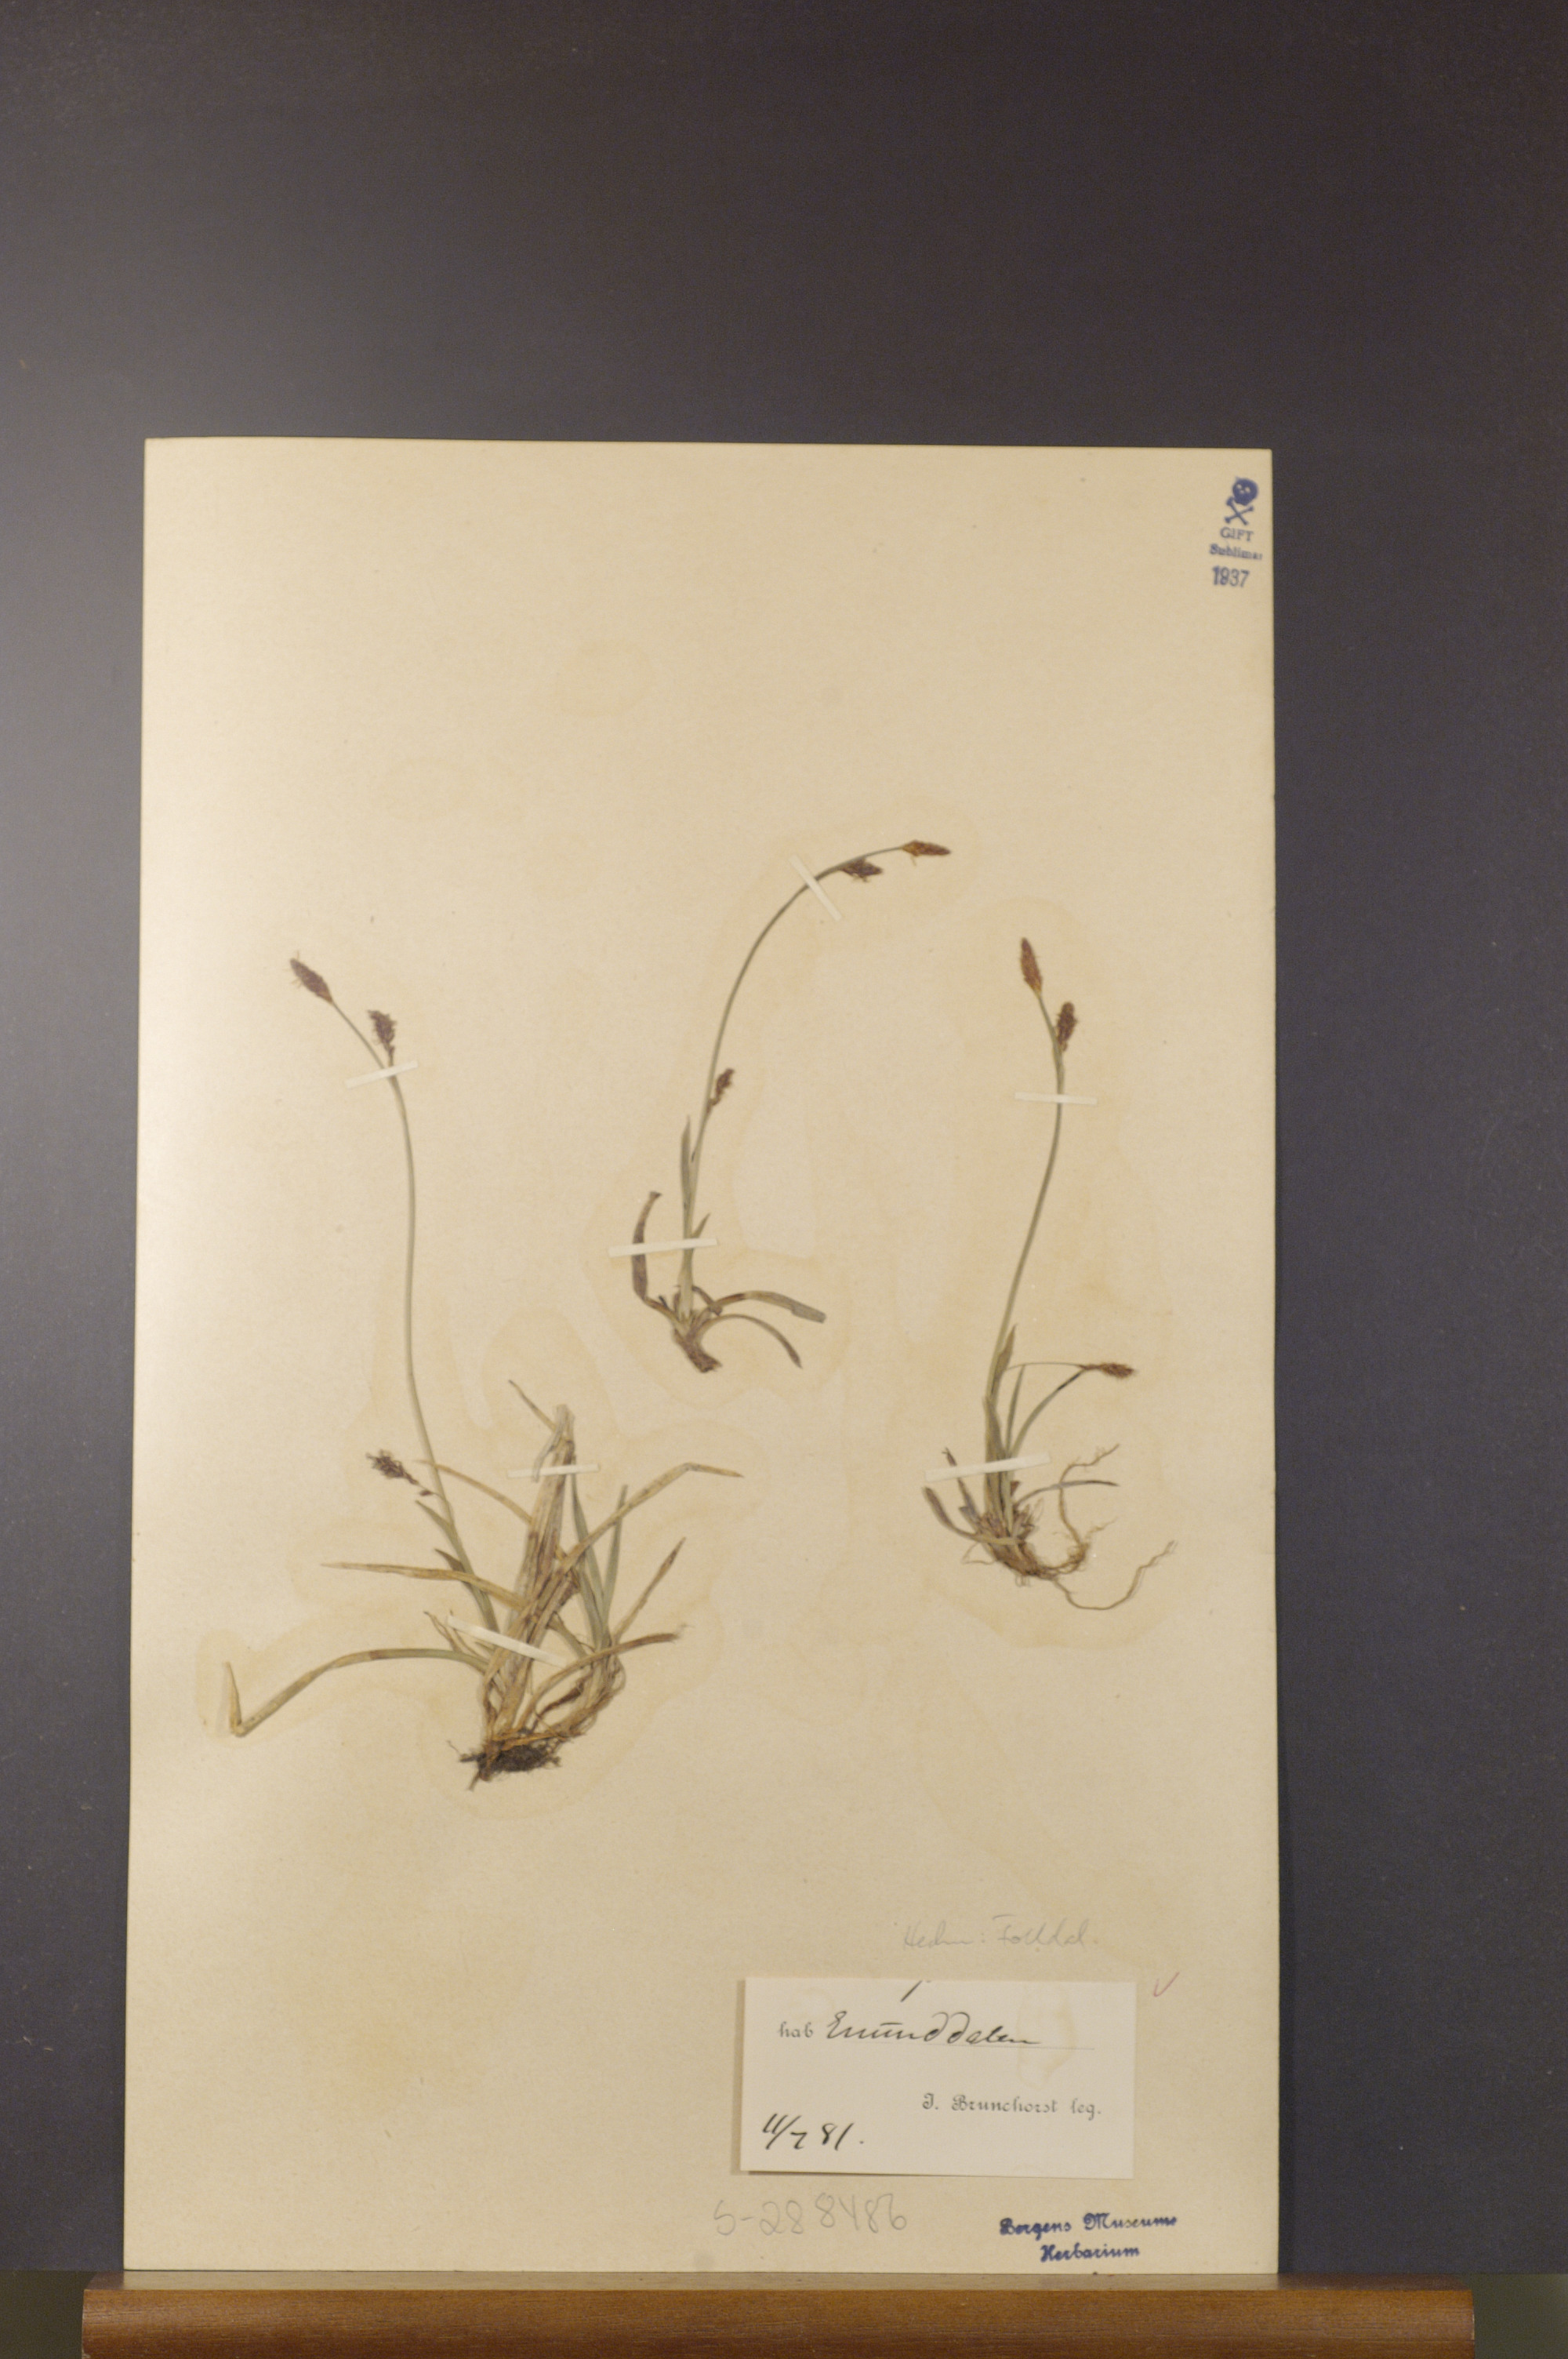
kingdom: Plantae
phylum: Tracheophyta
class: Liliopsida
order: Poales
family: Cyperaceae
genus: Carex
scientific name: Carex vaginata
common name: Sheathed sedge
